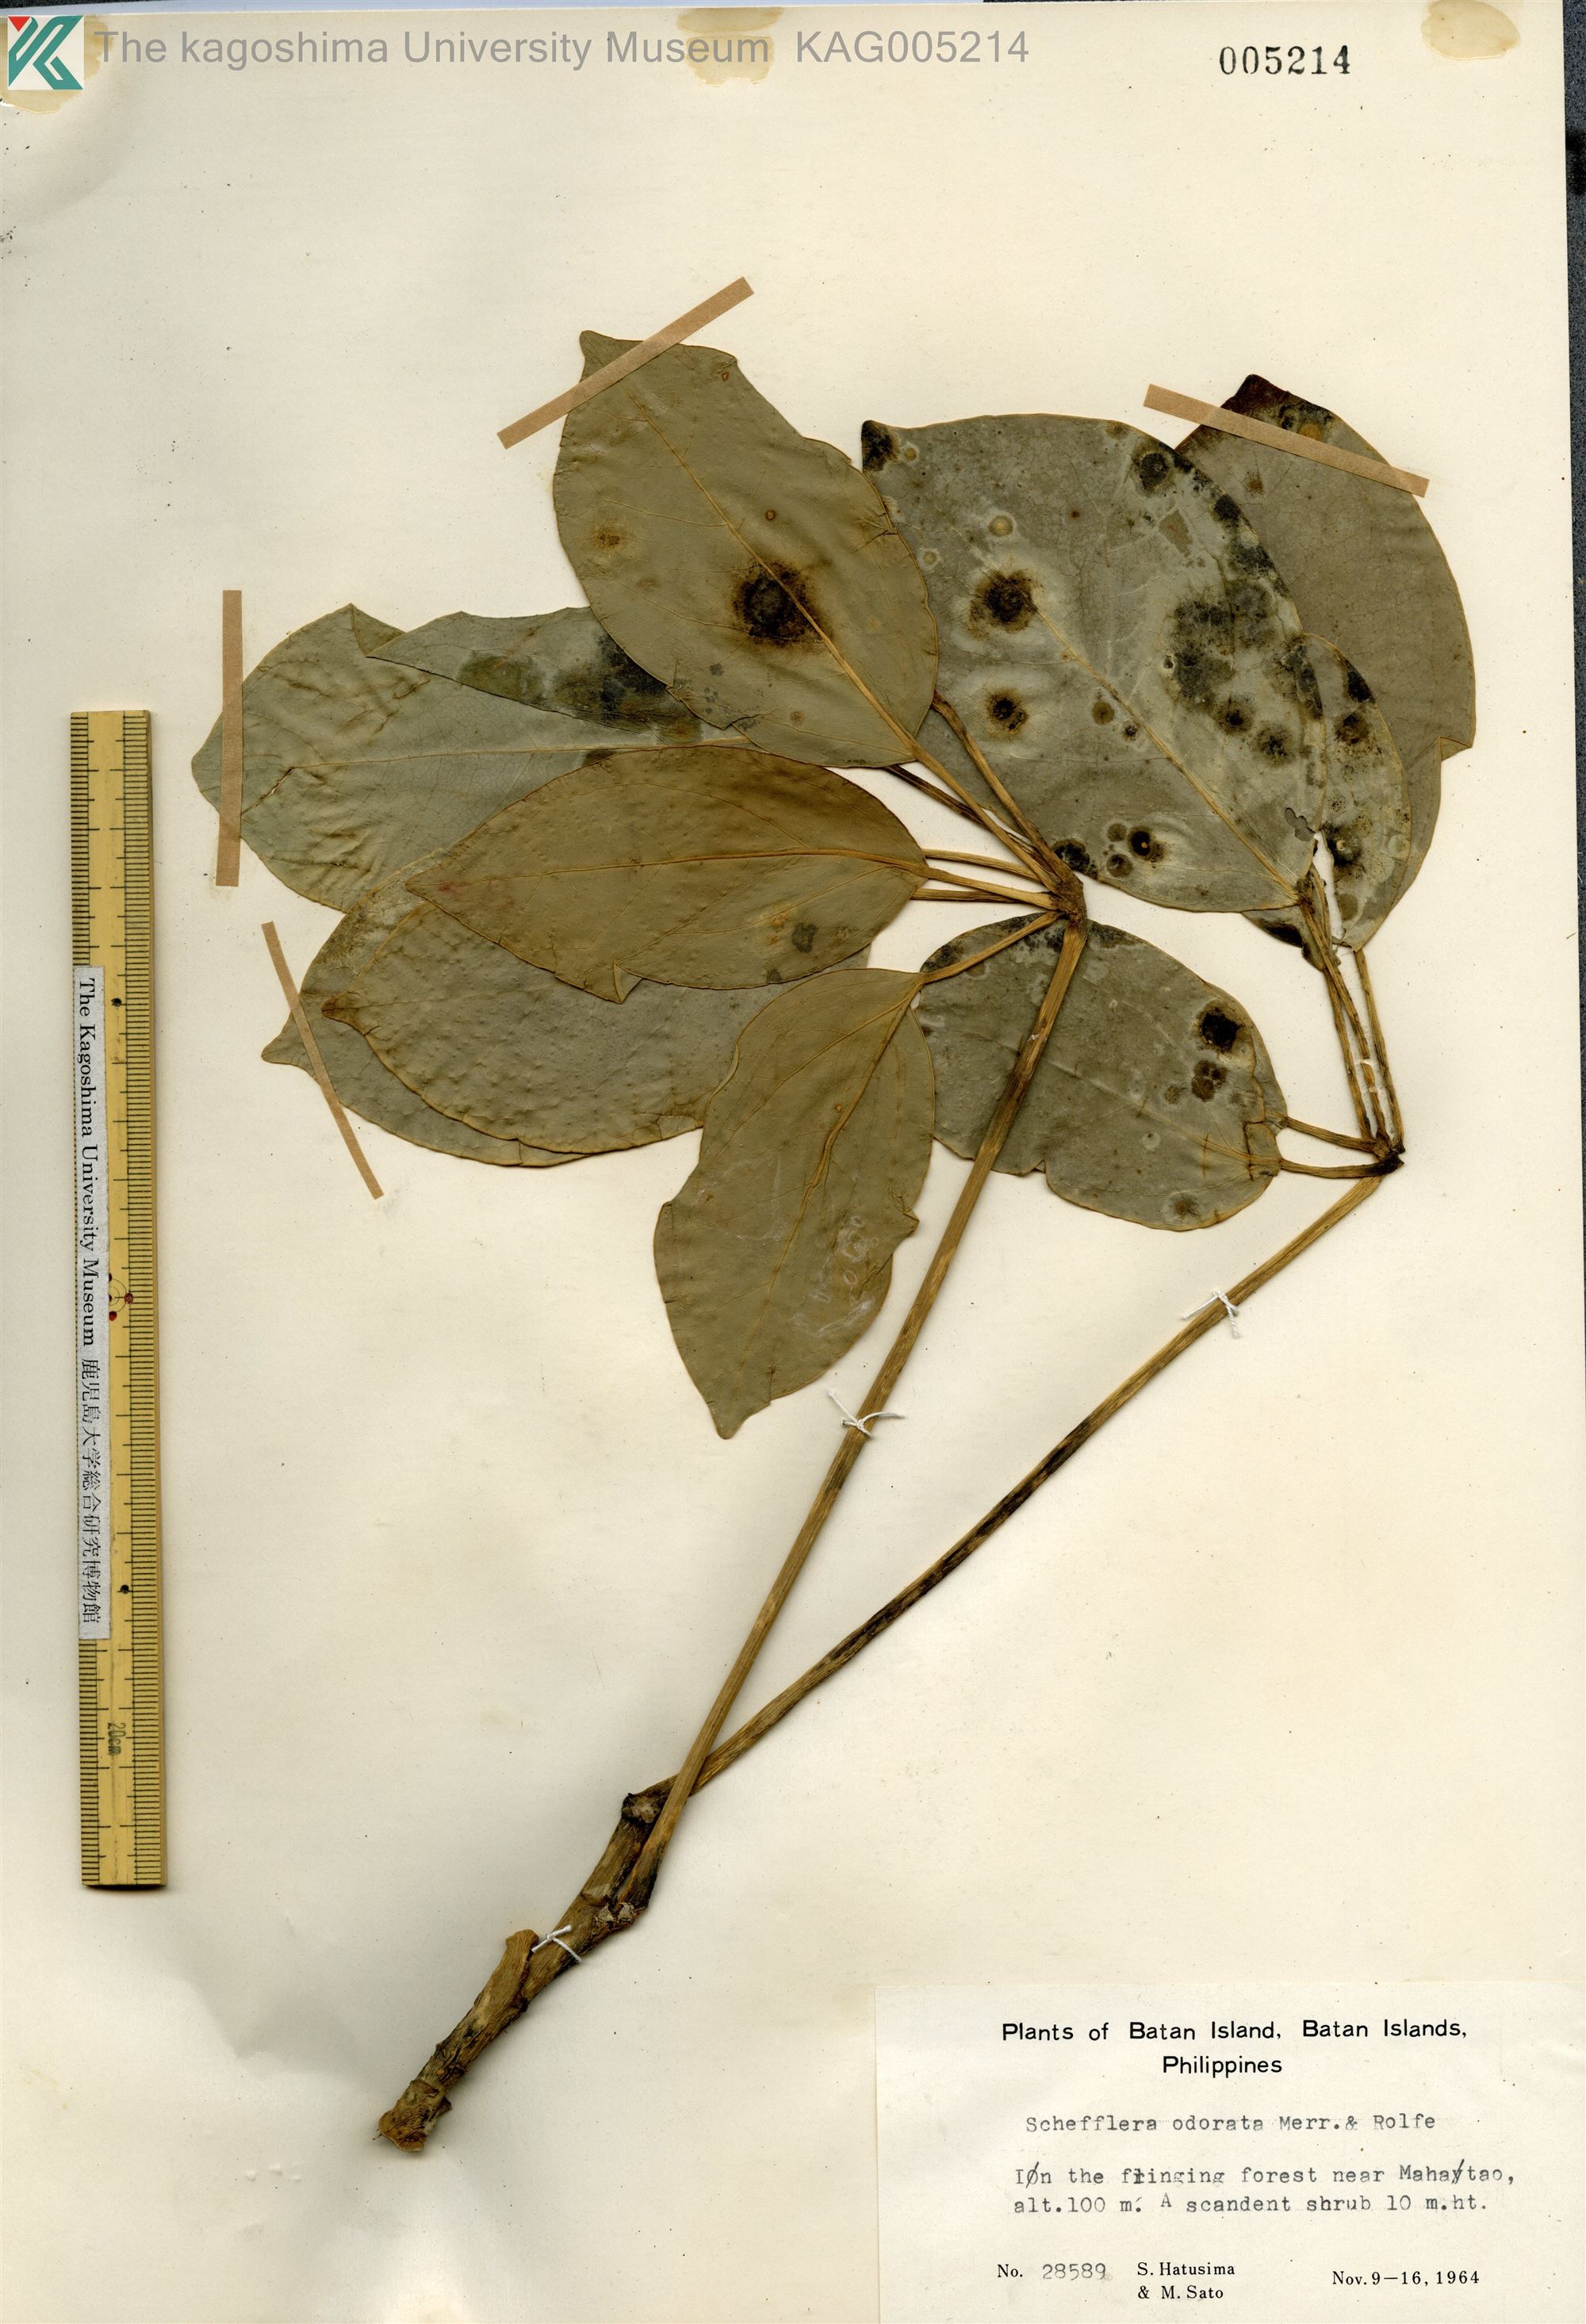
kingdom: Plantae
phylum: Tracheophyta
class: Magnoliopsida
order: Apiales
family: Araliaceae
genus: Heptapleurum
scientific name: Heptapleurum ellipticum
